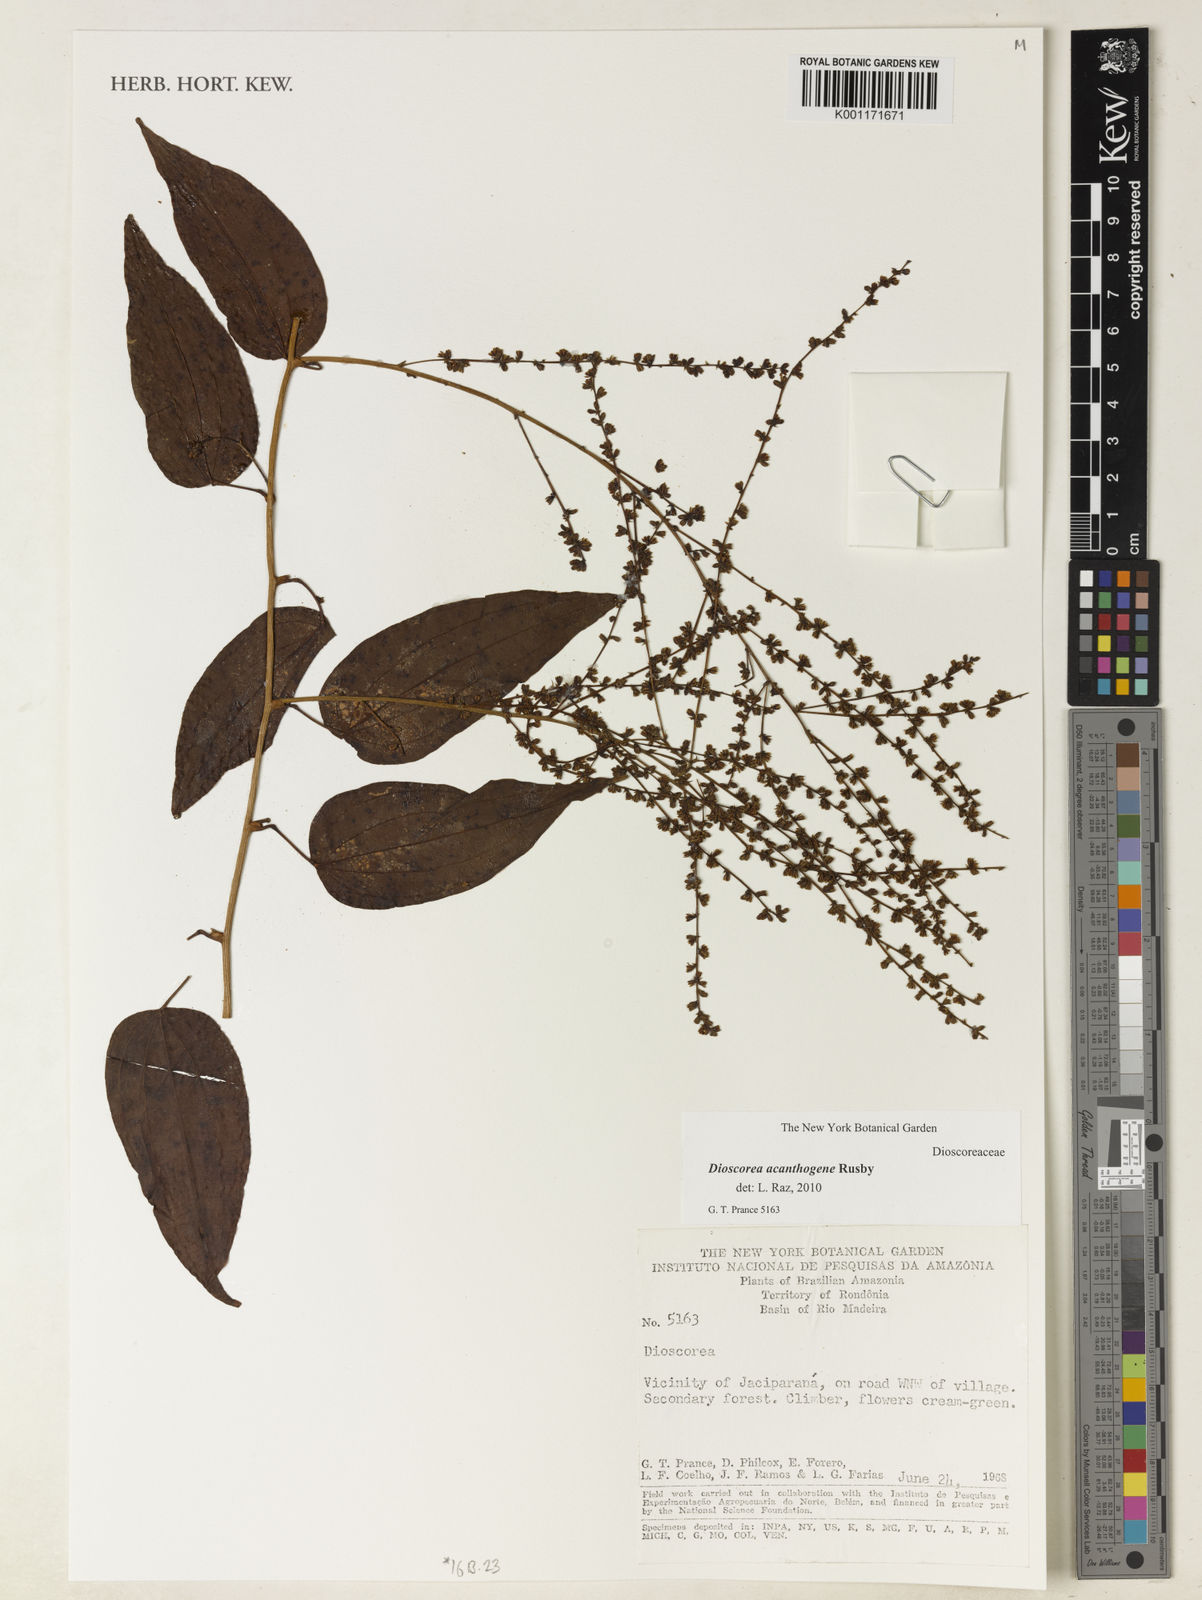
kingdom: Plantae
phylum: Tracheophyta
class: Liliopsida
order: Dioscoreales
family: Dioscoreaceae
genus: Dioscorea
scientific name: Dioscorea acanthogene
